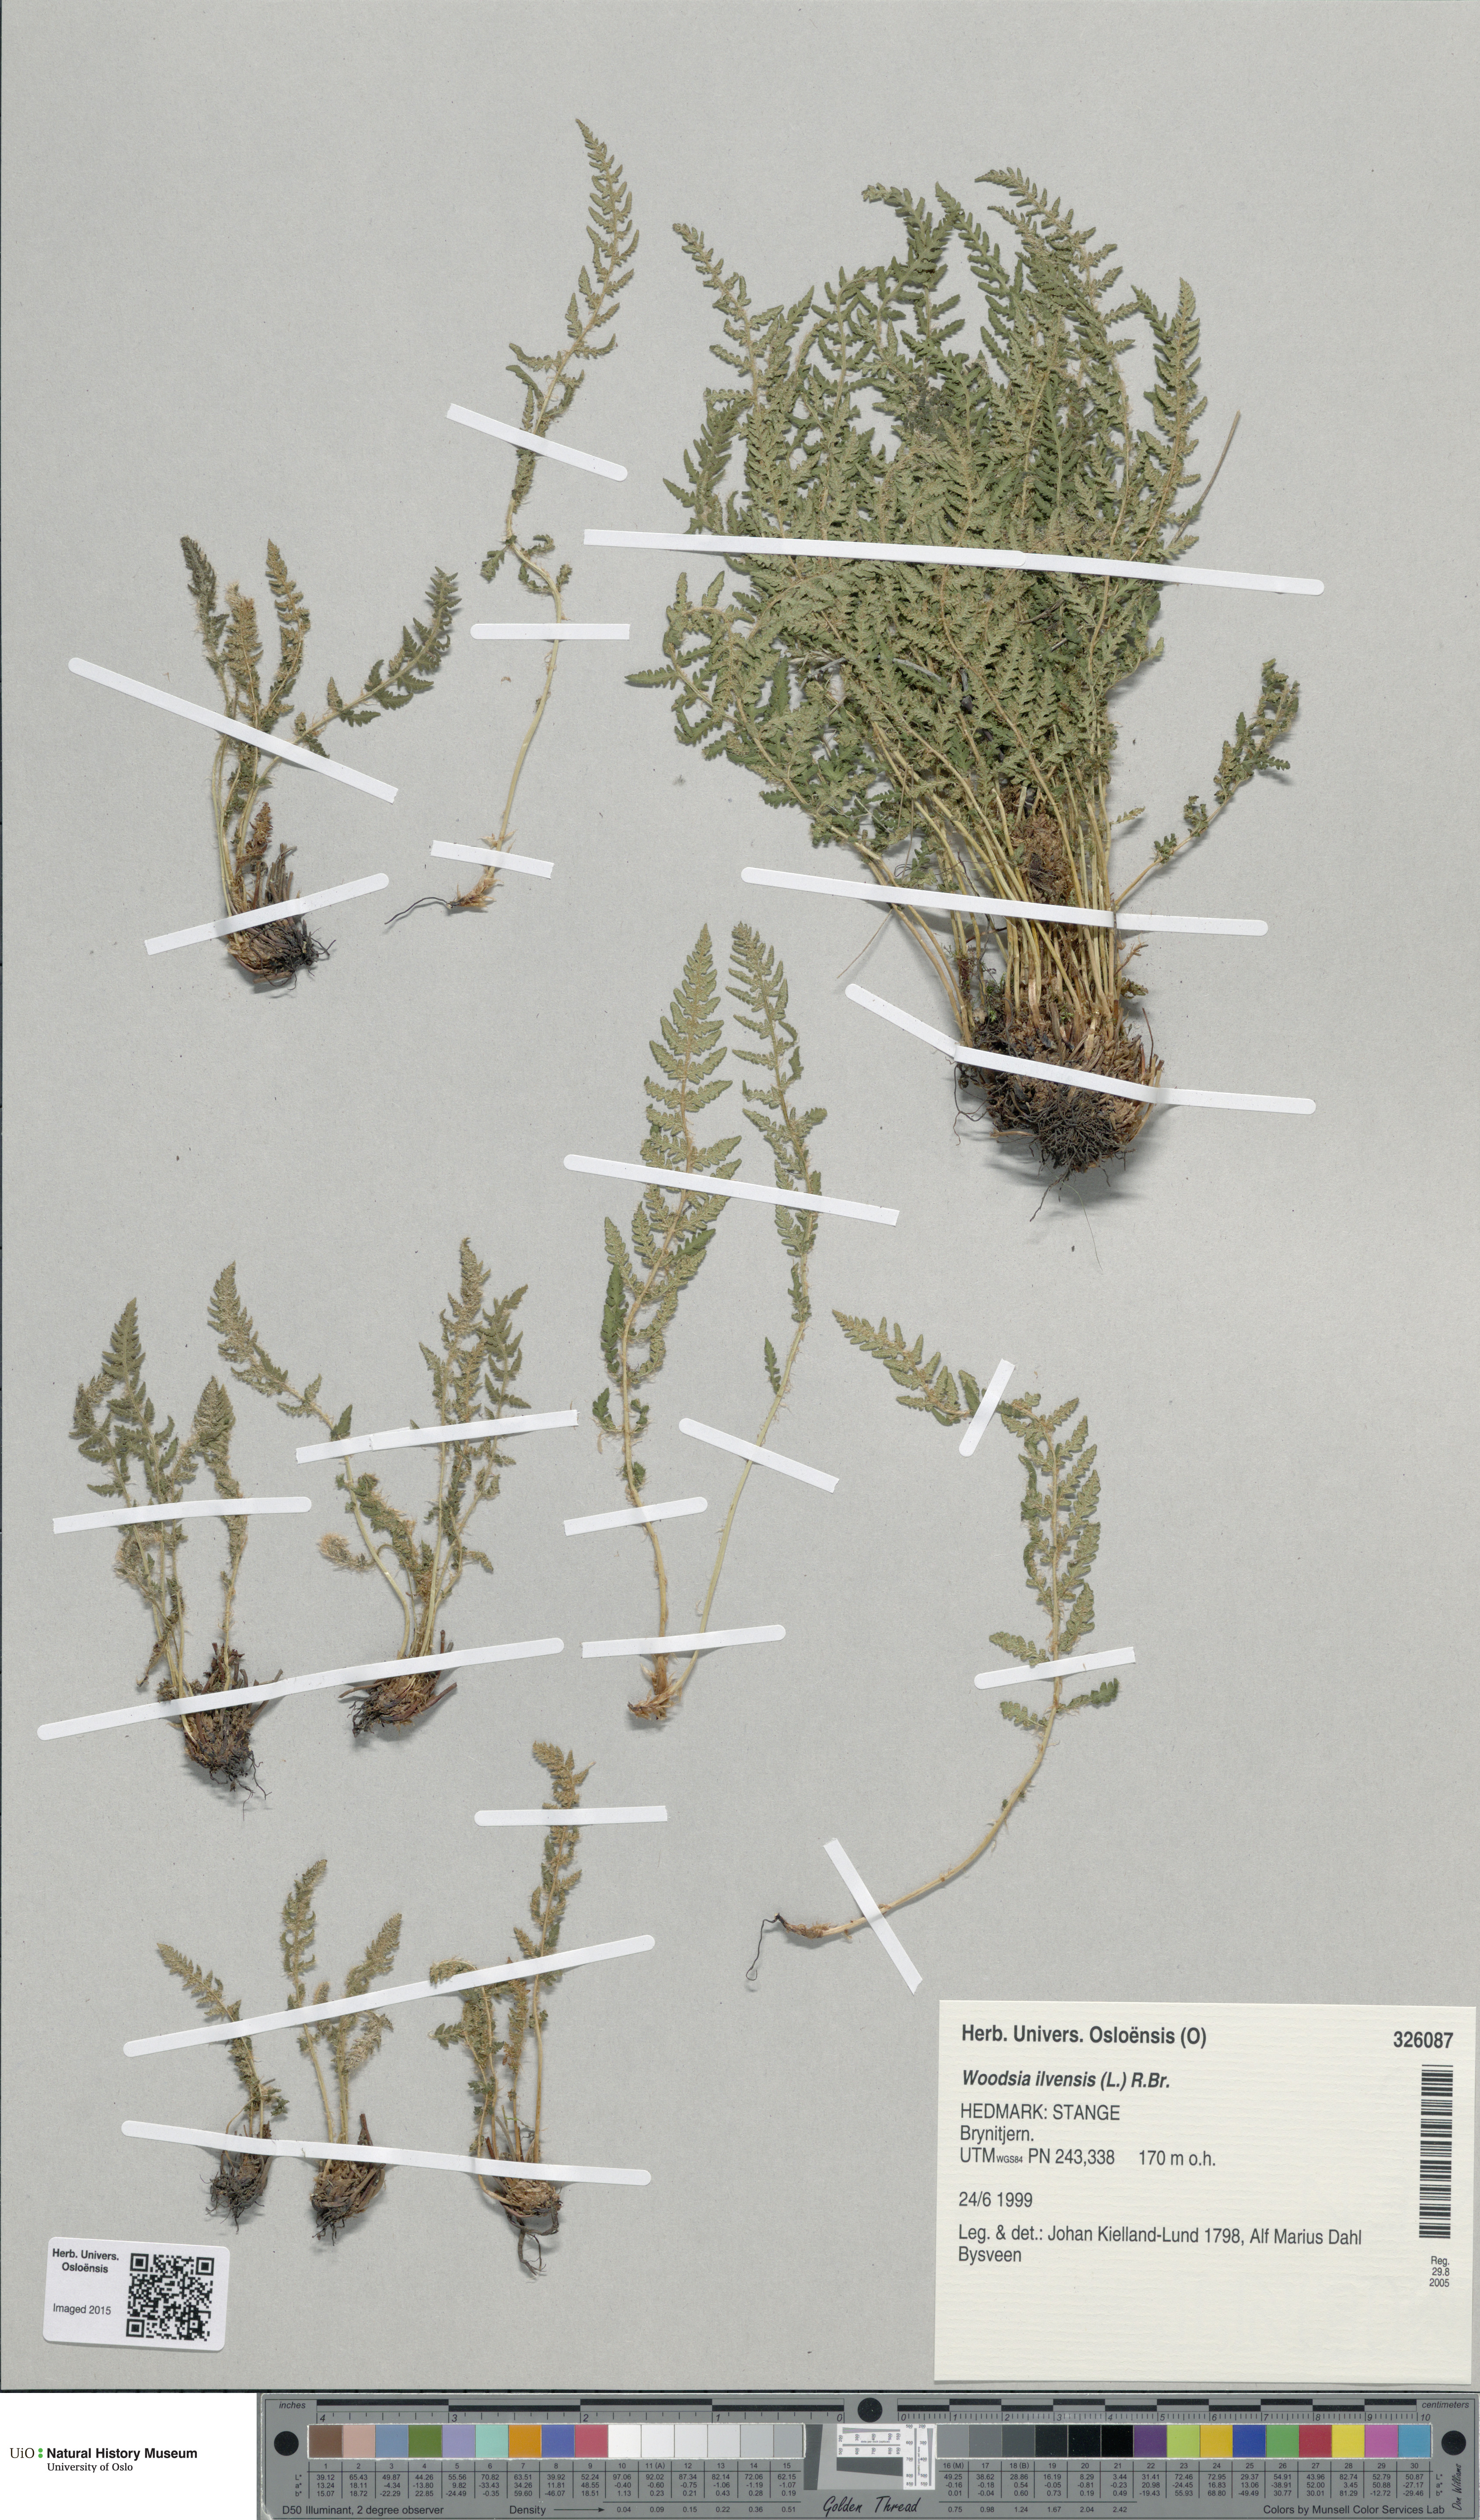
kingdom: Plantae
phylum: Tracheophyta
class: Polypodiopsida
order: Polypodiales
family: Woodsiaceae
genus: Woodsia
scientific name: Woodsia ilvensis
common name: Fragrant woodsia
